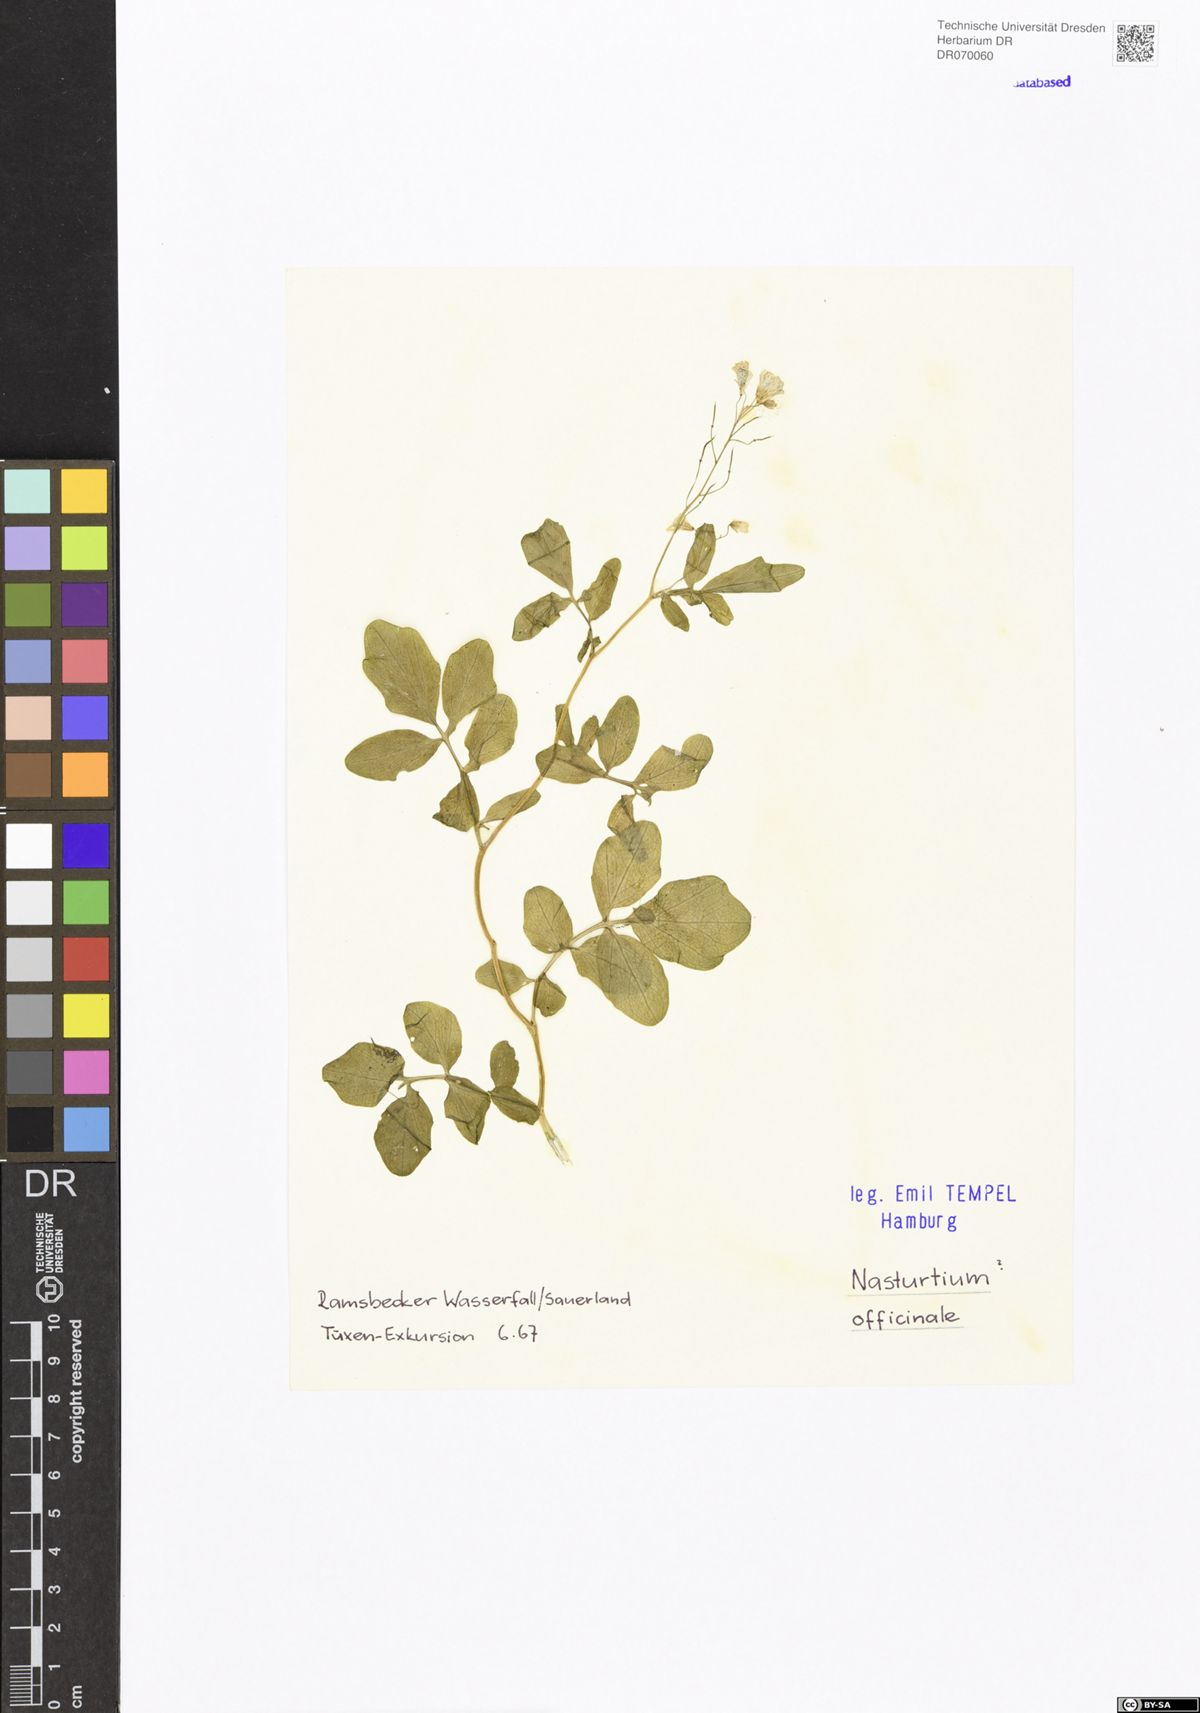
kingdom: Plantae
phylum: Tracheophyta
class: Magnoliopsida
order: Brassicales
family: Brassicaceae
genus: Nasturtium
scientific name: Nasturtium officinale
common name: Watercress
